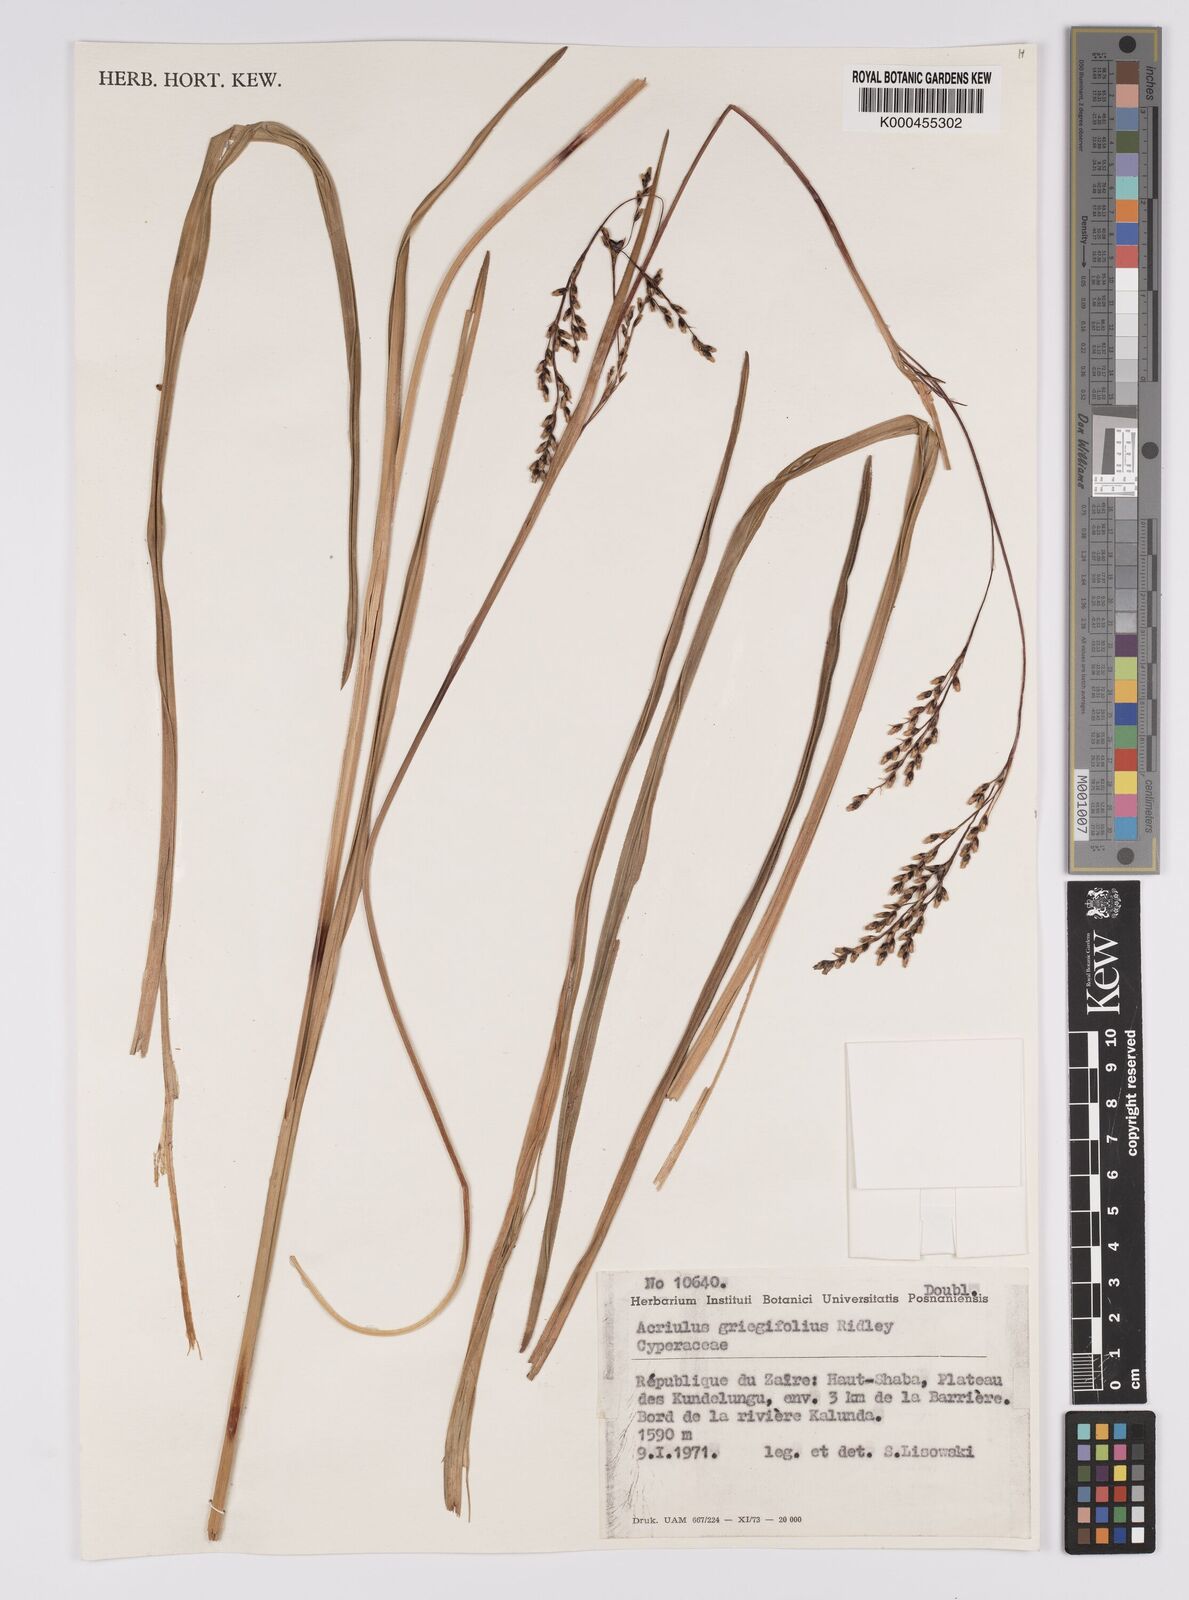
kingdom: Plantae
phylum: Tracheophyta
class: Liliopsida
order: Poales
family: Cyperaceae
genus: Scleria
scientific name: Scleria greigiifolia
